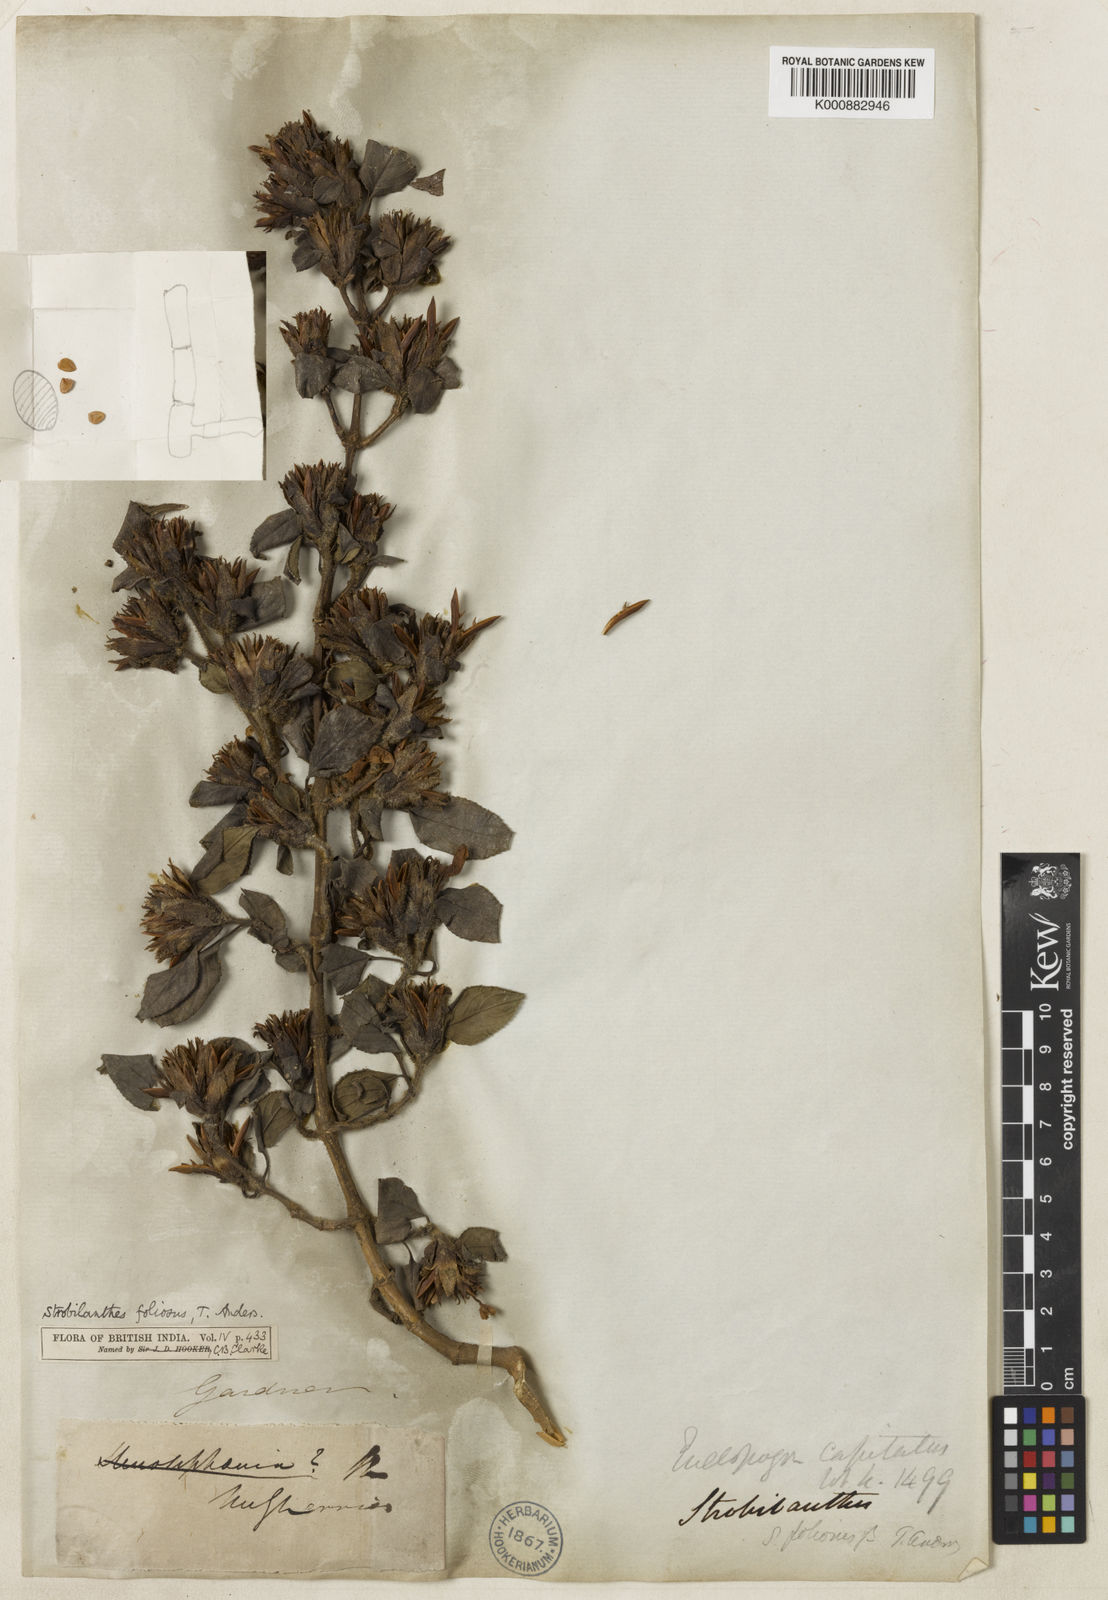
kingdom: Plantae
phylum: Tracheophyta
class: Magnoliopsida
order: Lamiales
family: Acanthaceae
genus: Strobilanthes
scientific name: Strobilanthes foliosa
